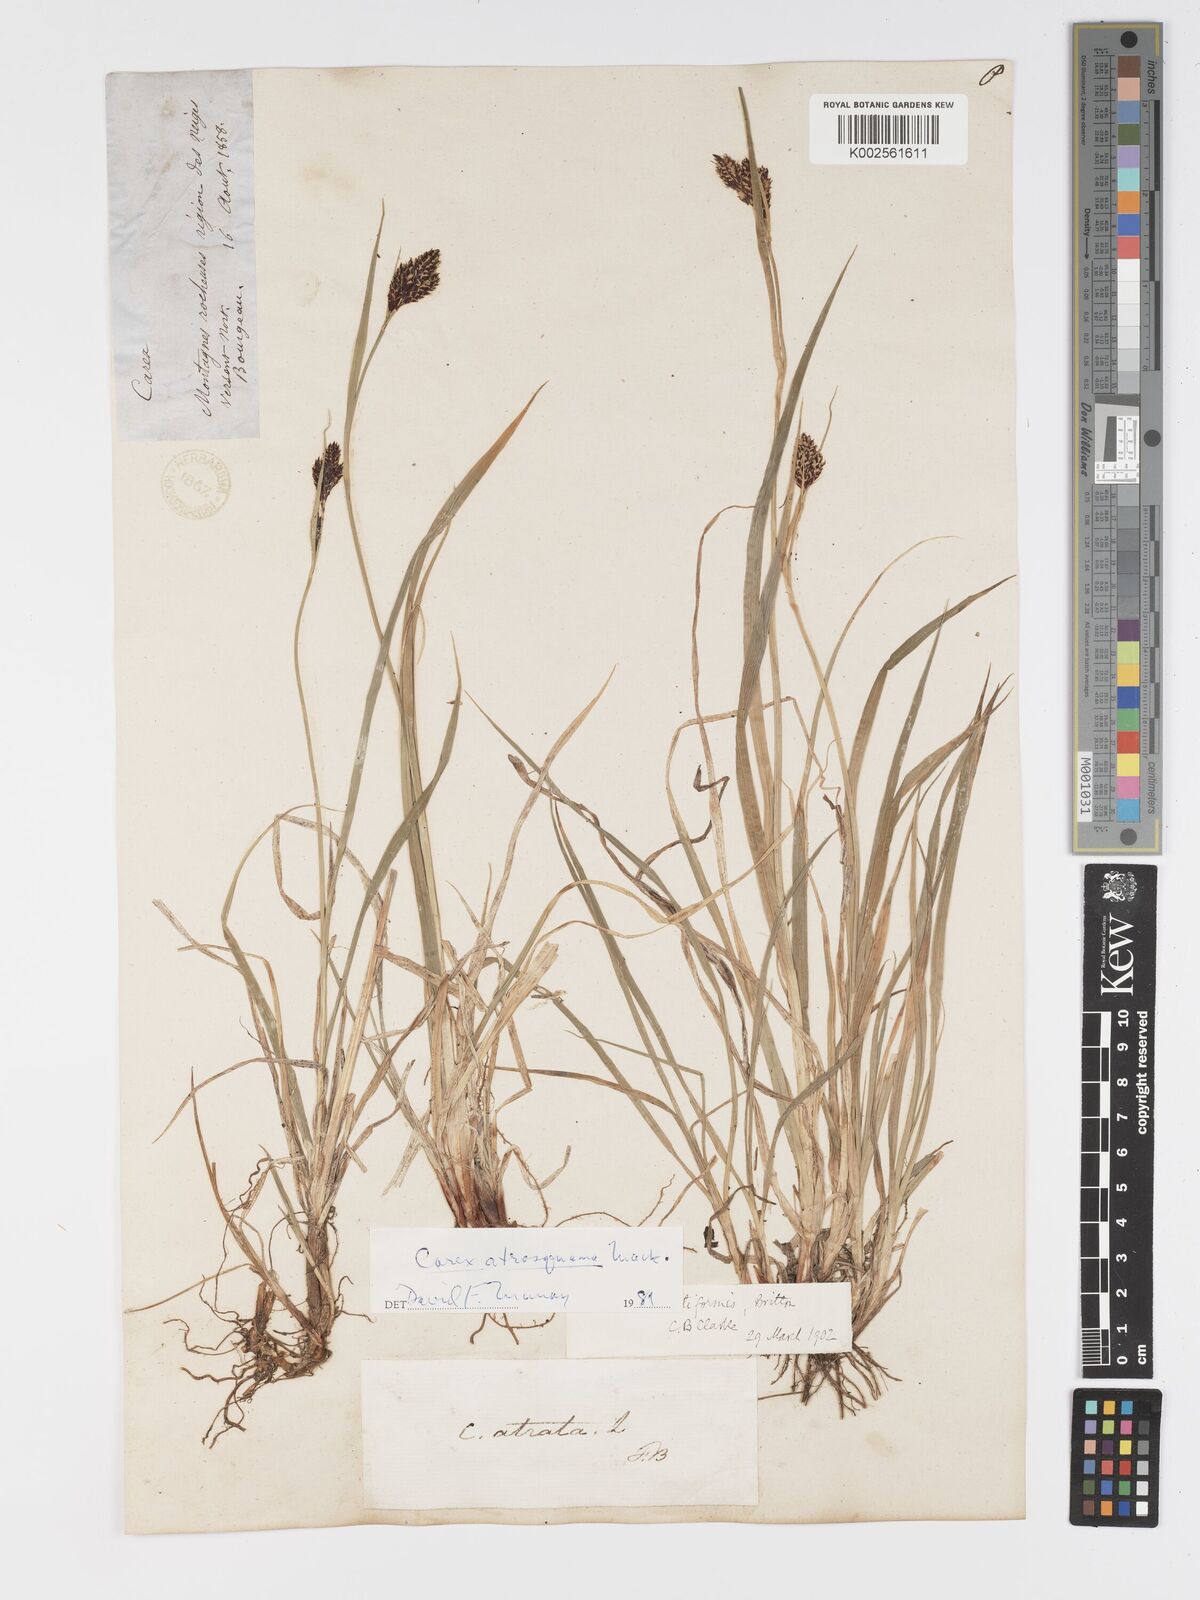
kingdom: Plantae
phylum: Tracheophyta
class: Liliopsida
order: Poales
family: Cyperaceae
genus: Carex
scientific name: Carex atrosquama
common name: Black-scale sedge
